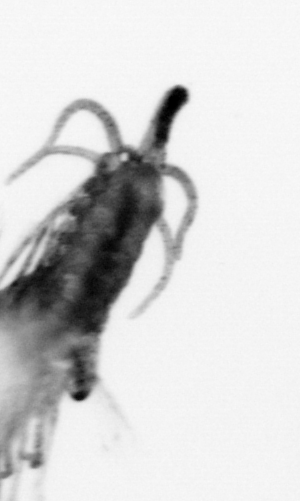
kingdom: Animalia
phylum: Arthropoda
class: Copepoda
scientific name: Copepoda
